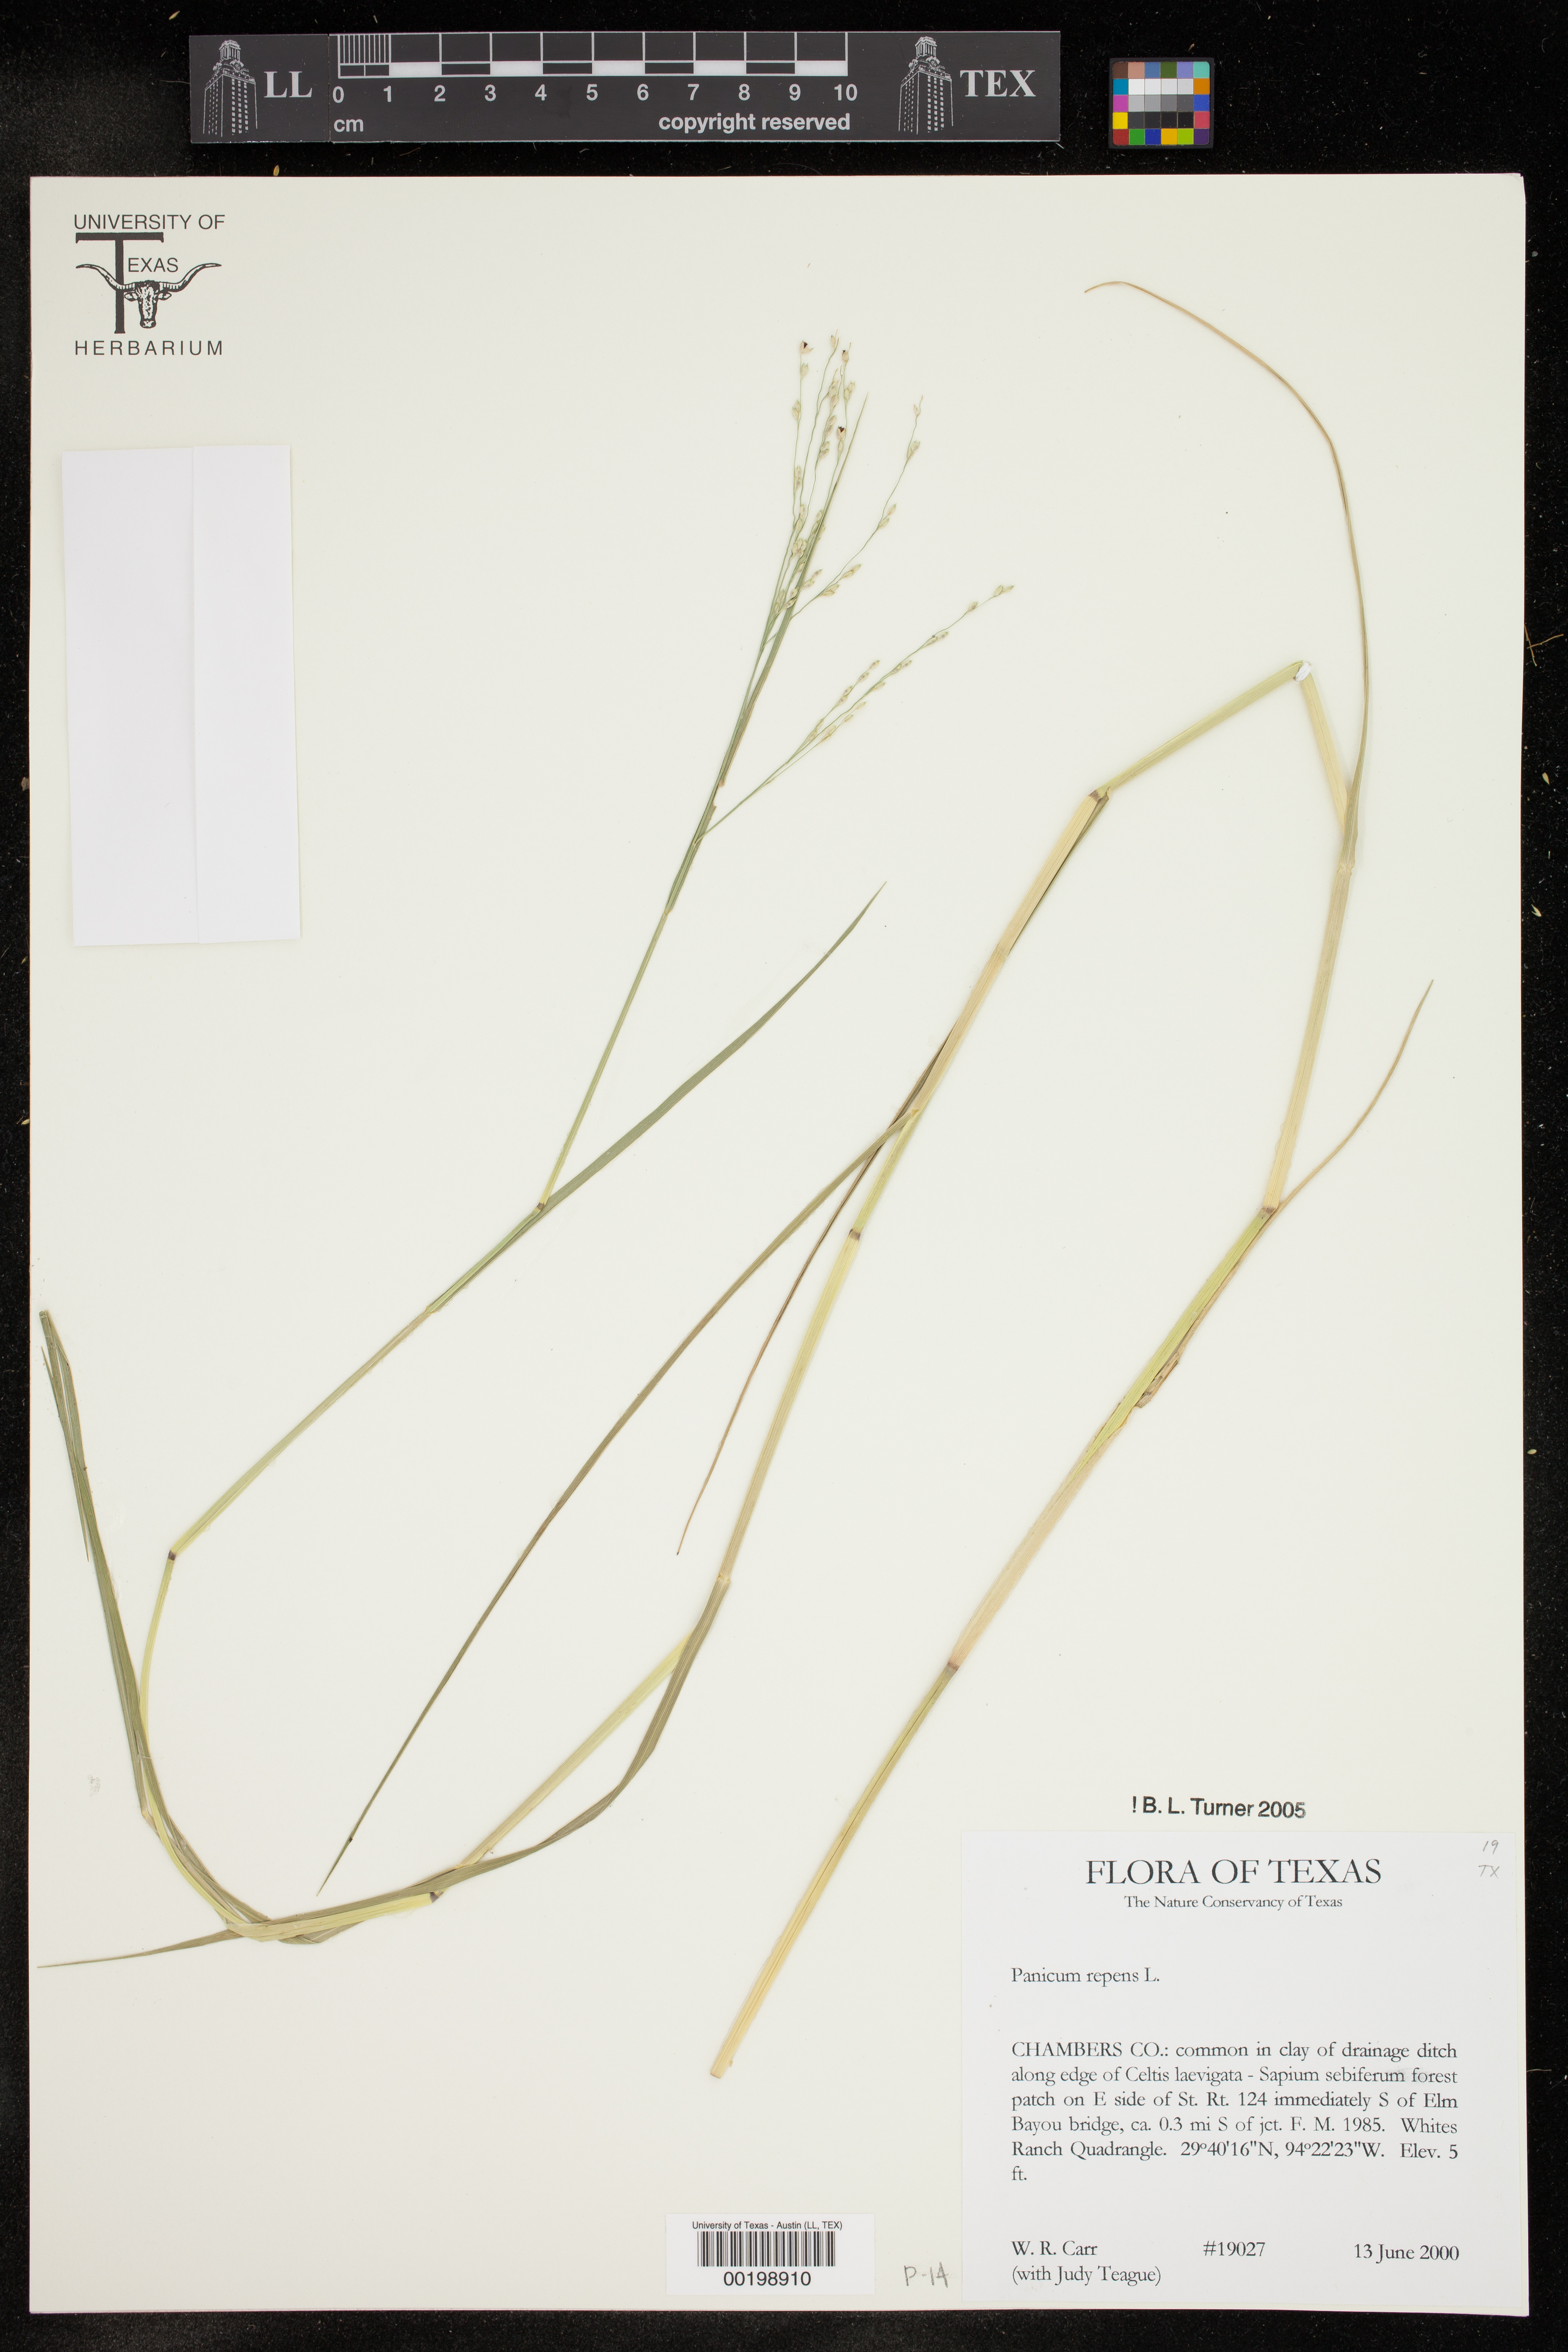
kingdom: Plantae
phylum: Tracheophyta
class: Liliopsida
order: Poales
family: Poaceae
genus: Panicum
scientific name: Panicum repens
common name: Torpedo grass
